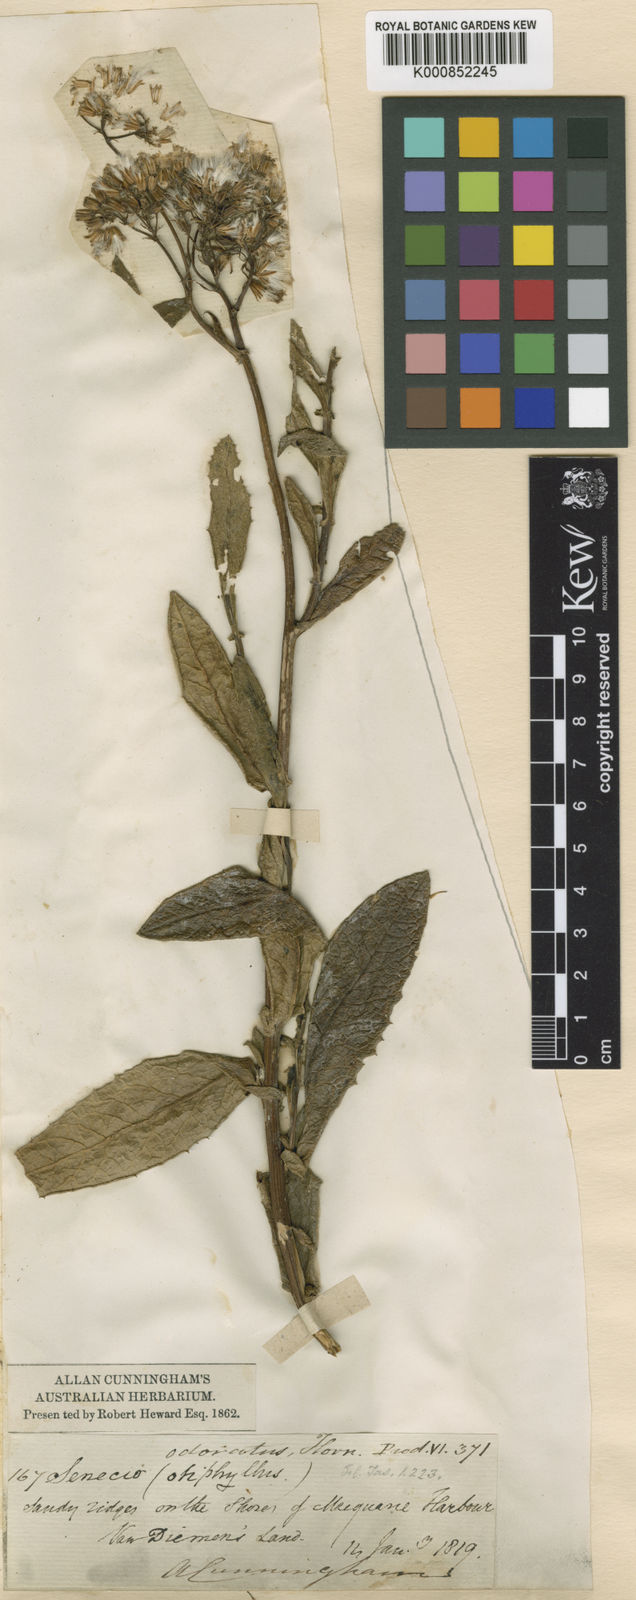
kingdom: Plantae
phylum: Tracheophyta
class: Magnoliopsida
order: Asterales
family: Asteraceae
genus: Senecio
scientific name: Senecio odoratus
